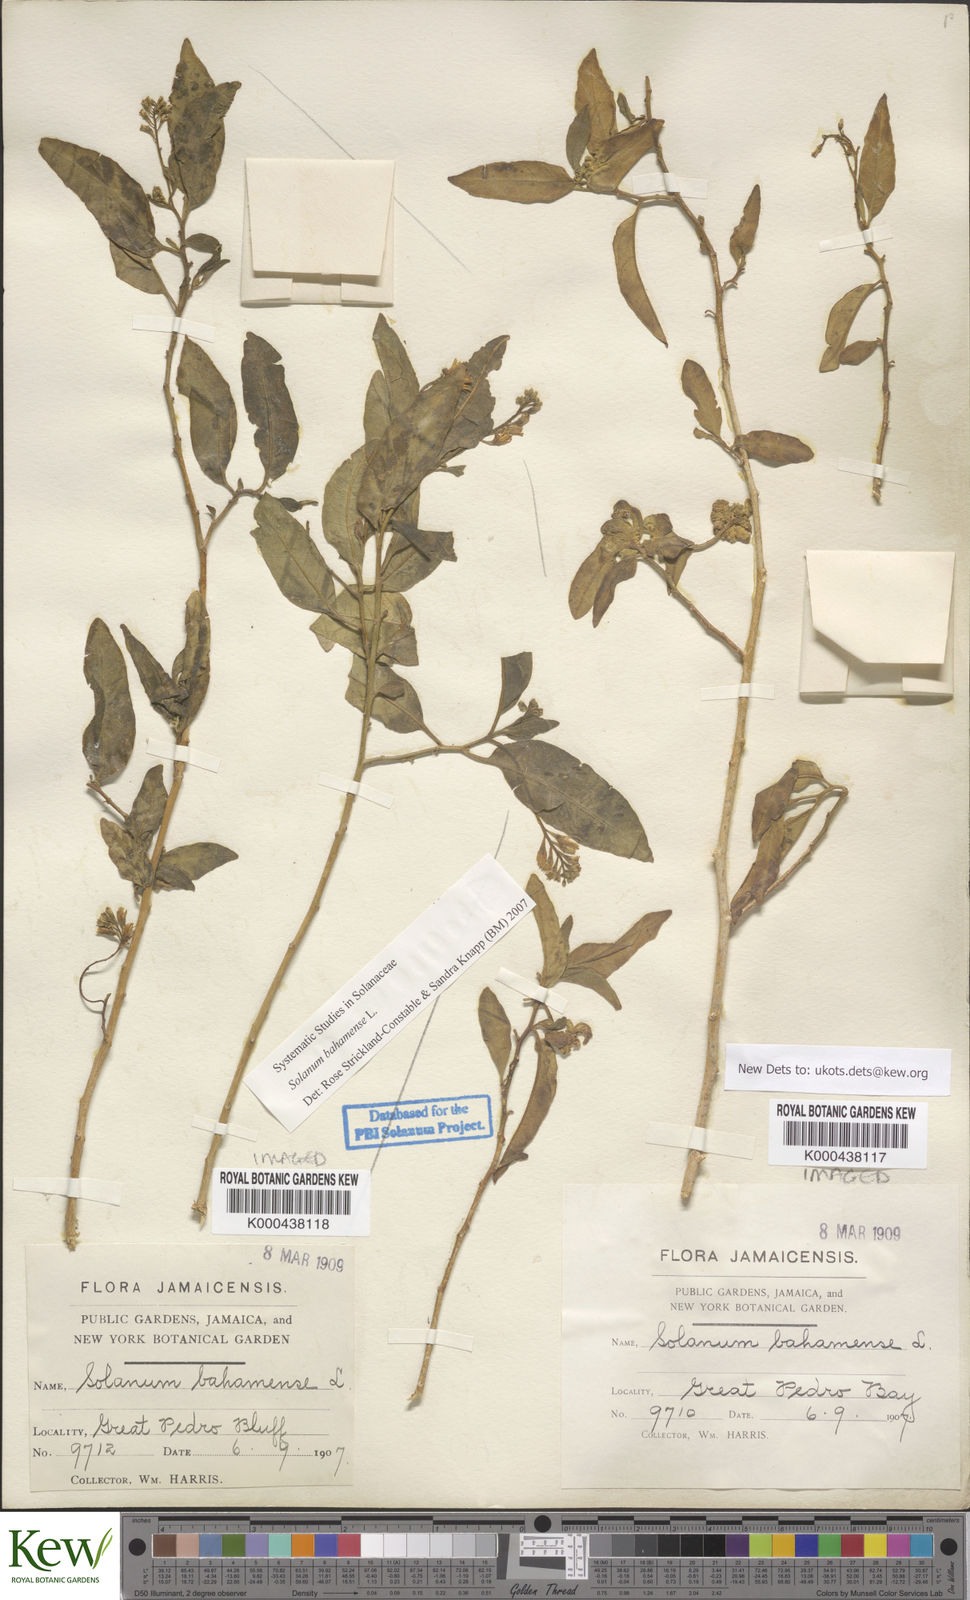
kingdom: Plantae
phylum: Tracheophyta
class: Magnoliopsida
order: Solanales
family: Solanaceae
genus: Solanum
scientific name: Solanum bahamense
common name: Canker-berry
